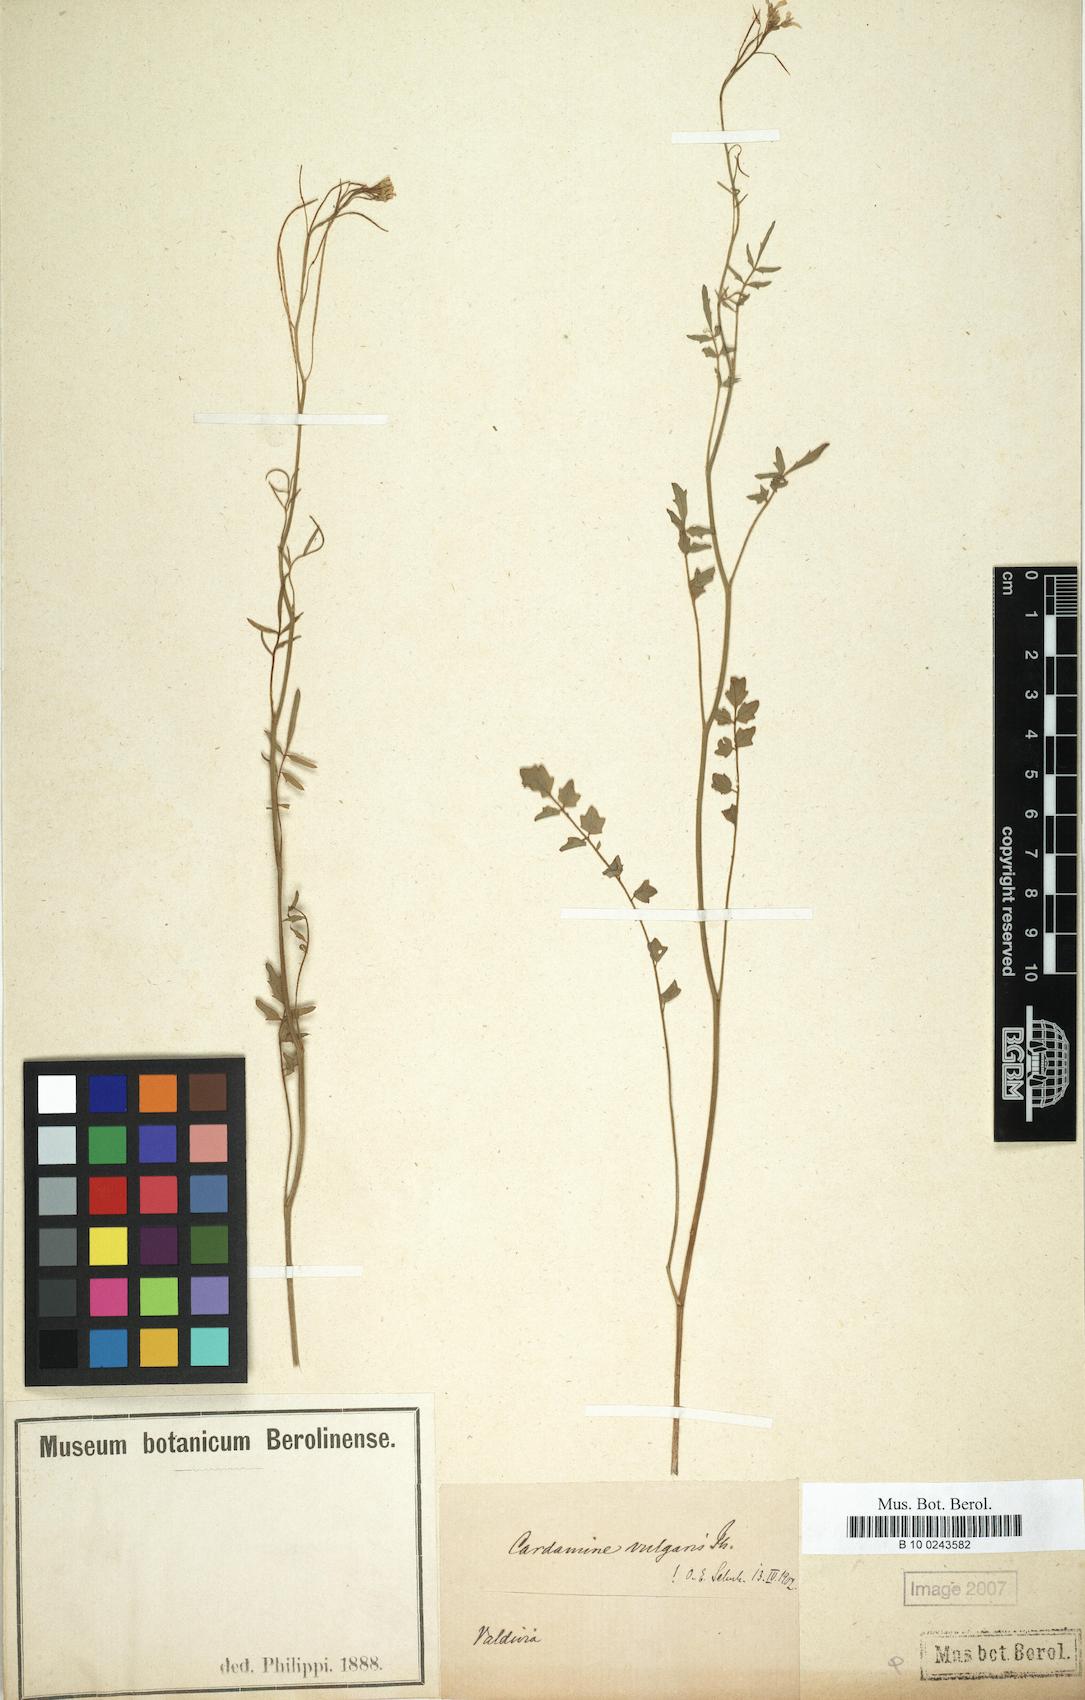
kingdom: Plantae
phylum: Tracheophyta
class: Magnoliopsida
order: Brassicales
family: Brassicaceae
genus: Cardamine
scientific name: Cardamine vulgaris
